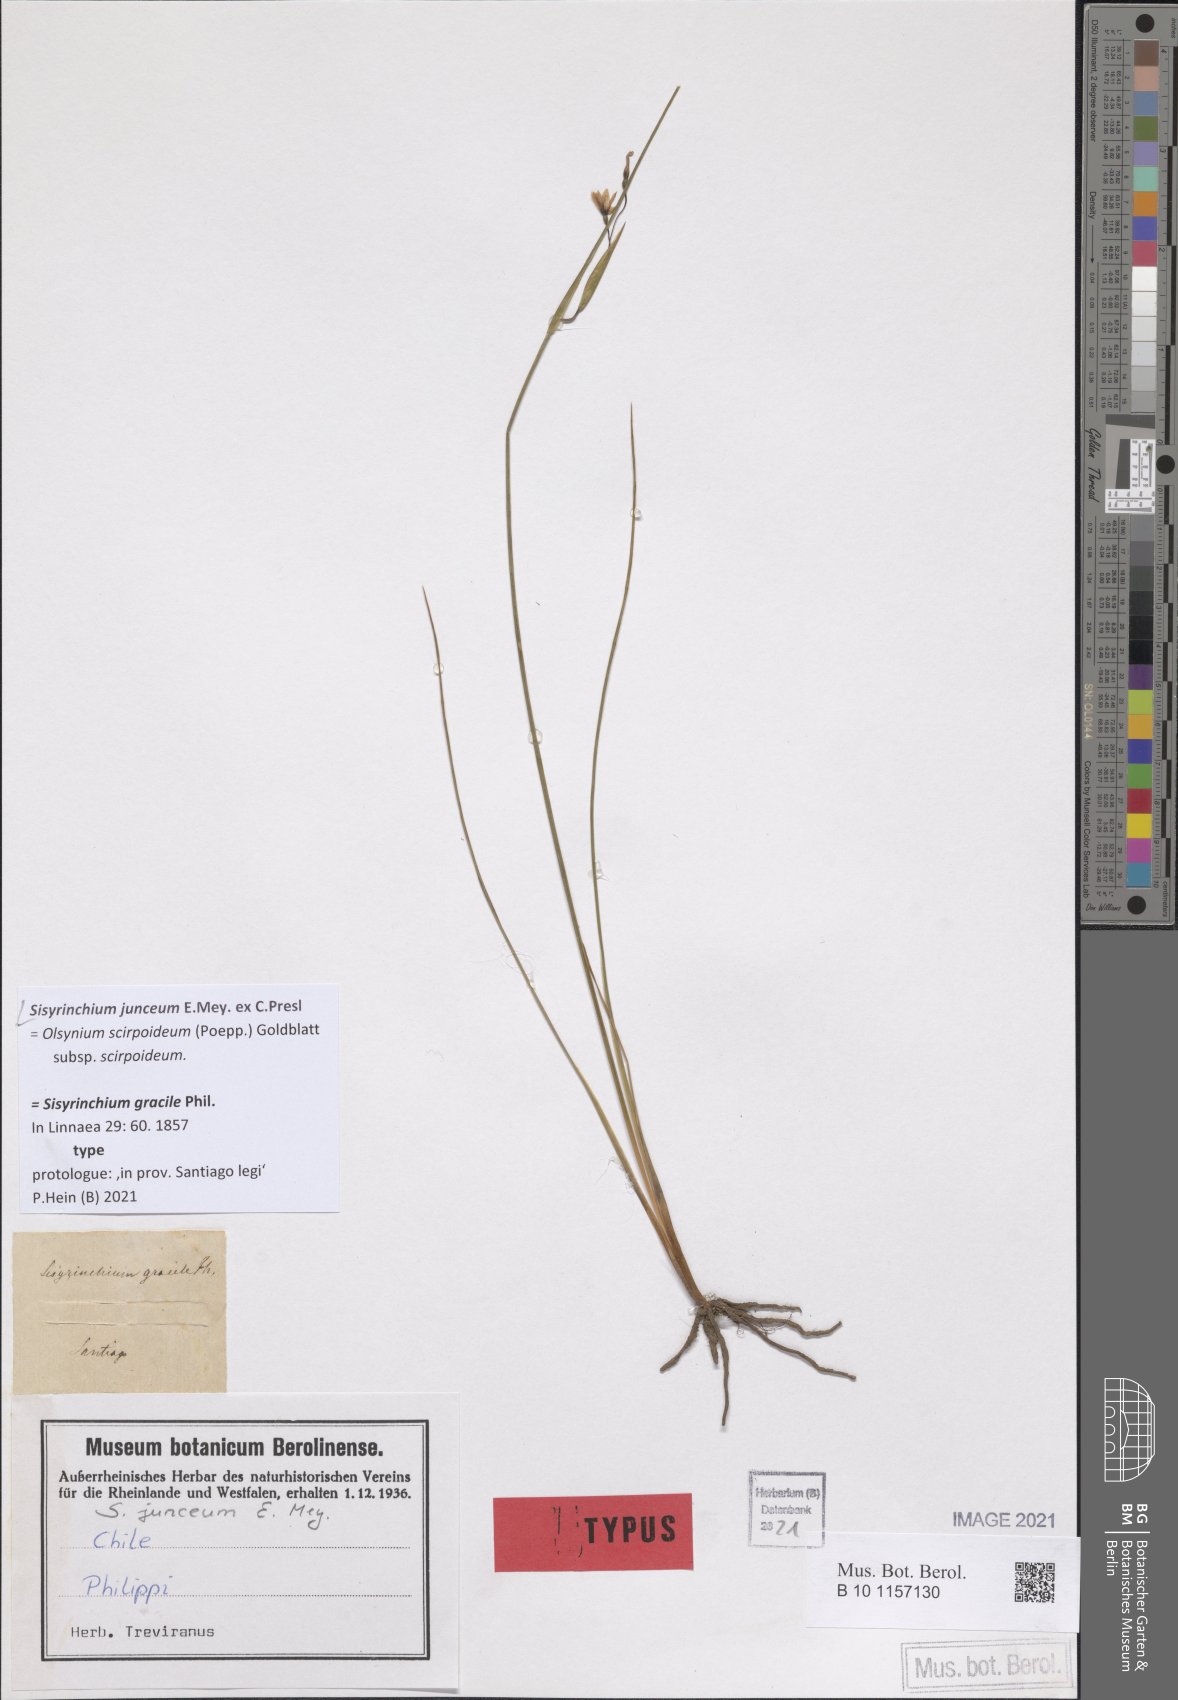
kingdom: Plantae
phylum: Tracheophyta
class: Liliopsida
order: Asparagales
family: Iridaceae
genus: Olsynium
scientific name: Olsynium junceum
